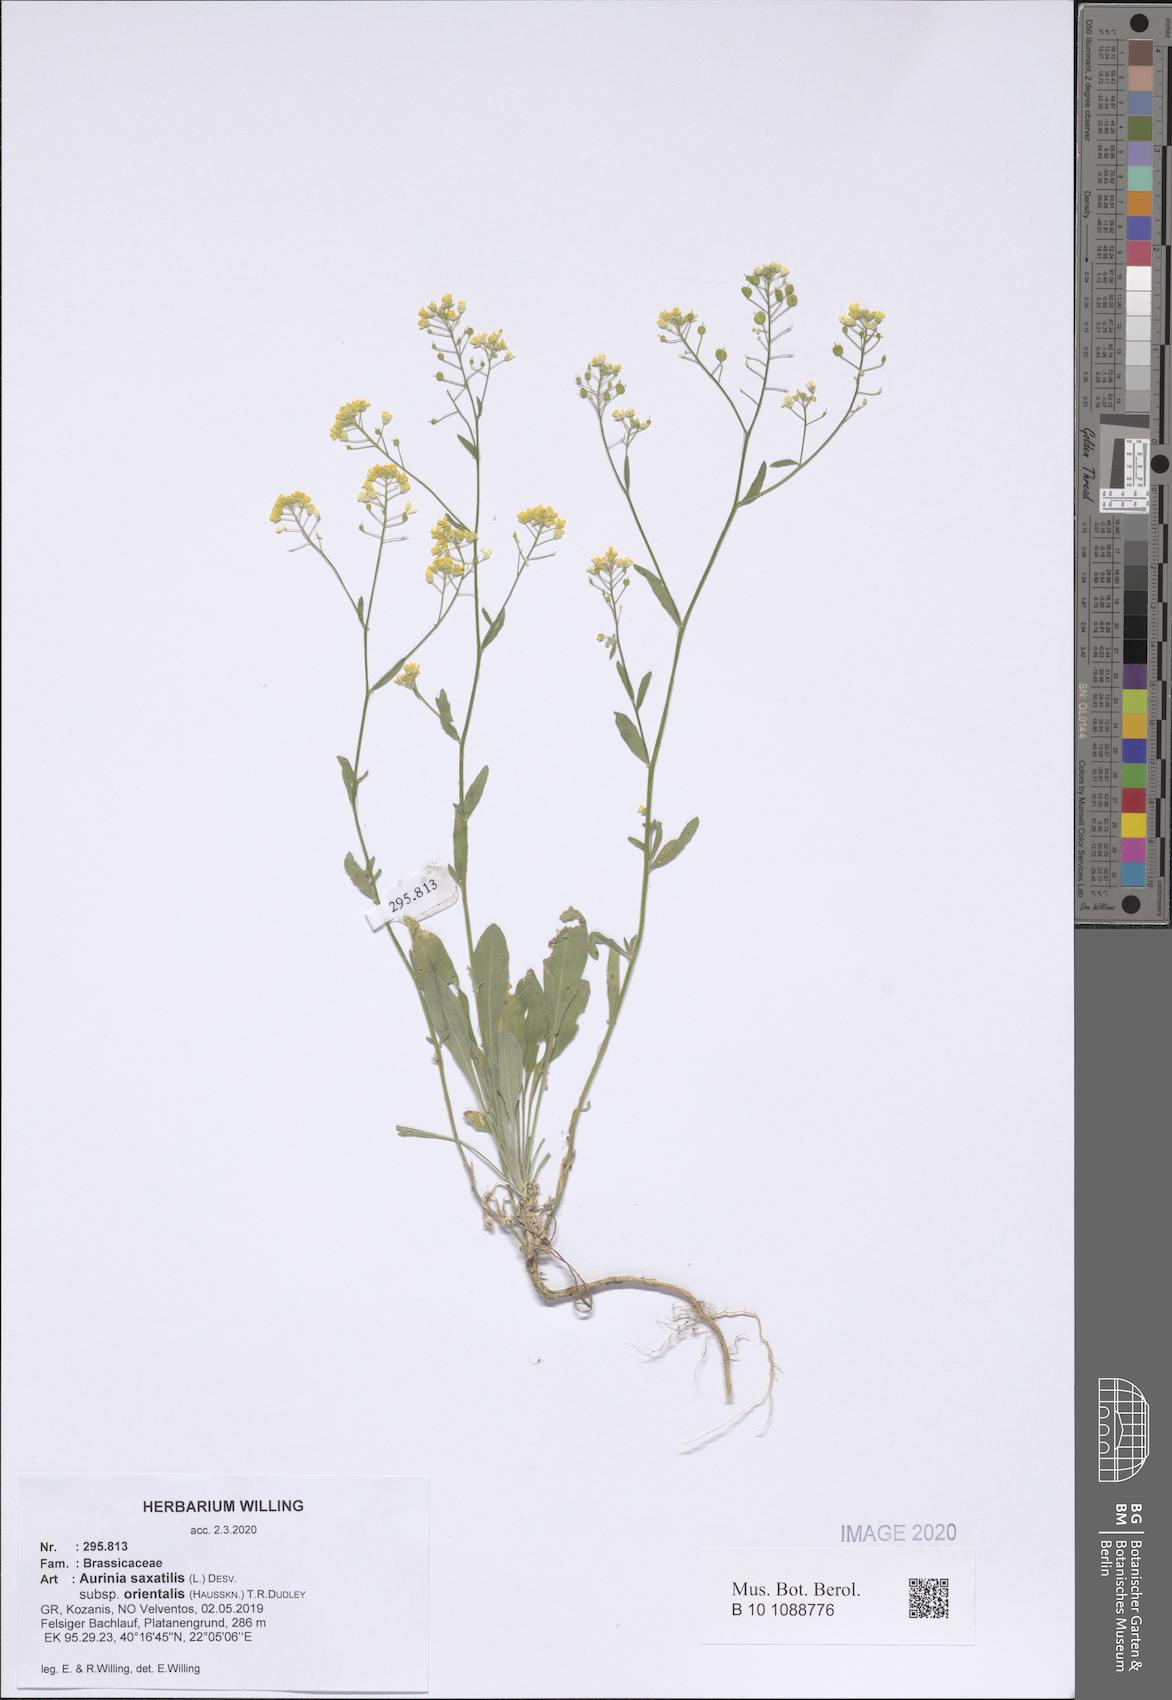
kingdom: Plantae
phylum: Tracheophyta
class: Magnoliopsida
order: Brassicales
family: Brassicaceae
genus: Aurinia
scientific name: Aurinia saxatilis
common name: Golden-tuft alyssum
